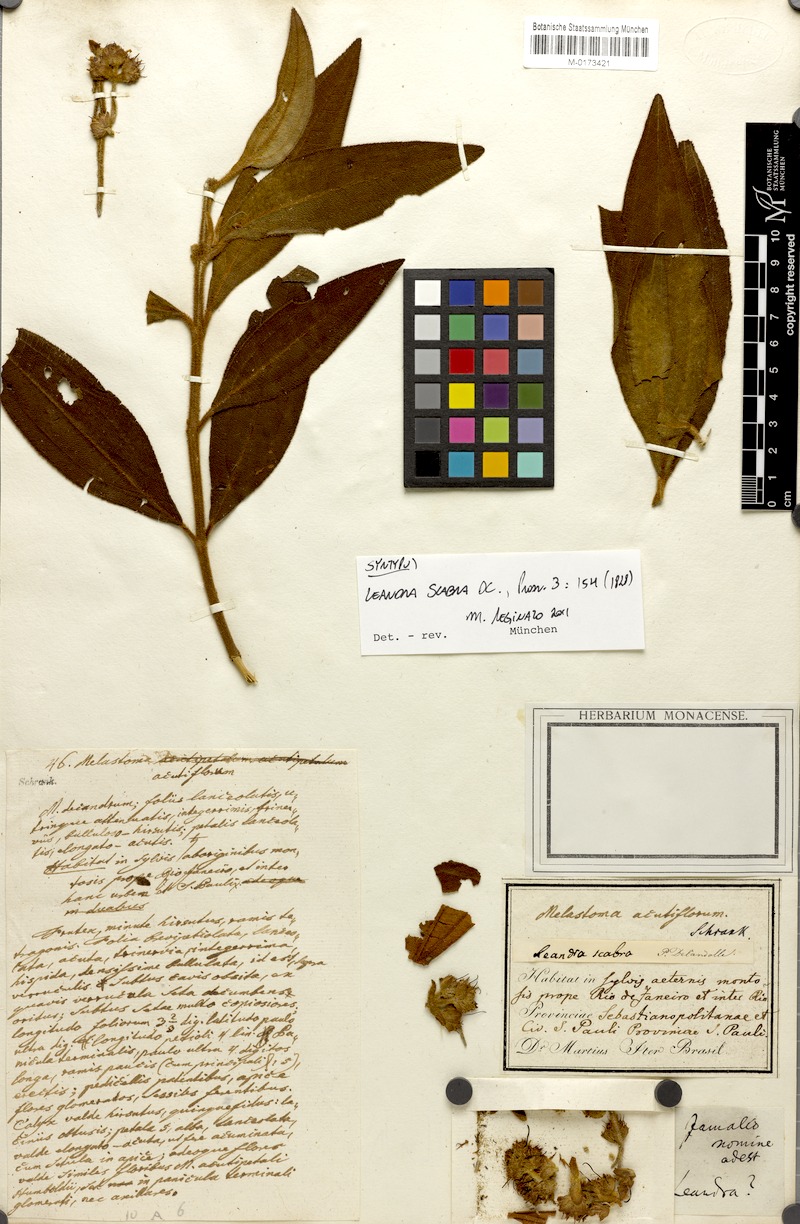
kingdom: Plantae
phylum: Tracheophyta
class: Magnoliopsida
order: Myrtales
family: Melastomataceae
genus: Miconia
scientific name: Miconia melastomoides
